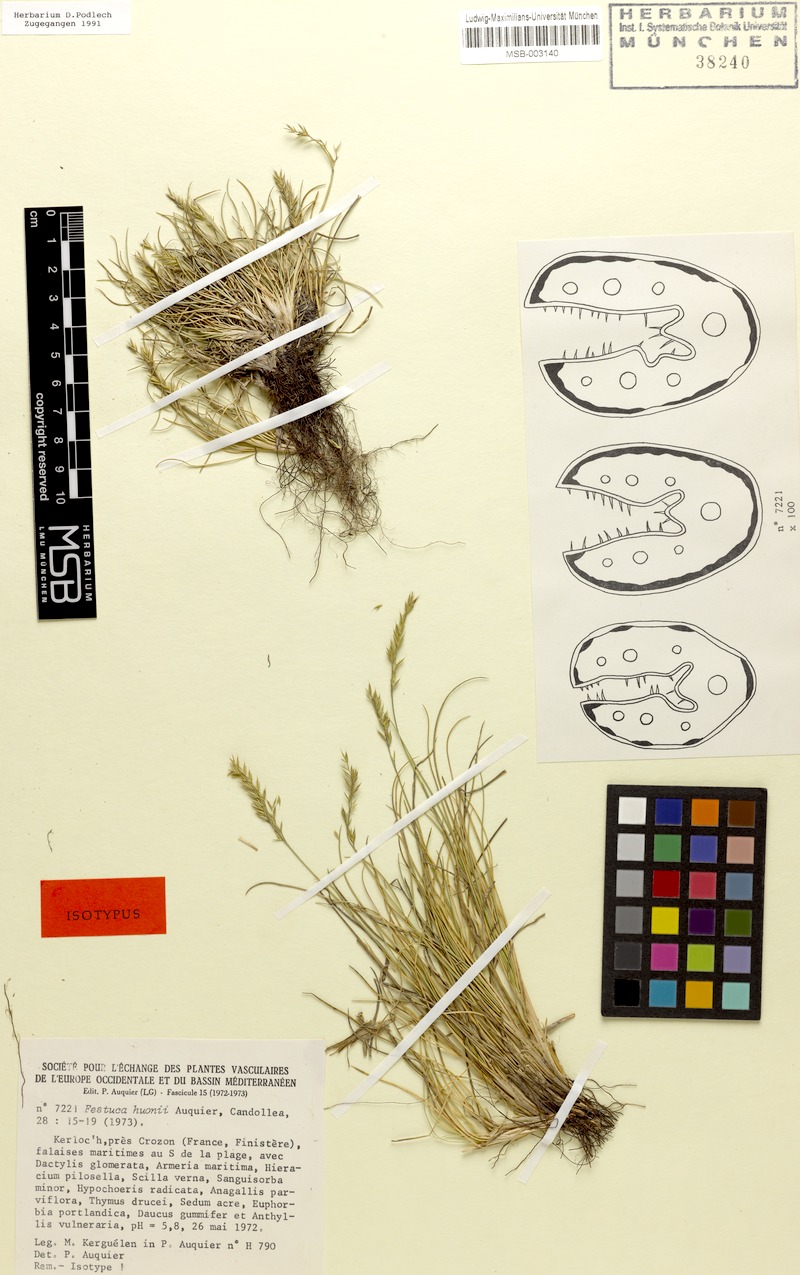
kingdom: Plantae
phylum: Tracheophyta
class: Liliopsida
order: Poales
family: Poaceae
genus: Festuca
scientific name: Festuca huonii
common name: Huon's fescue
